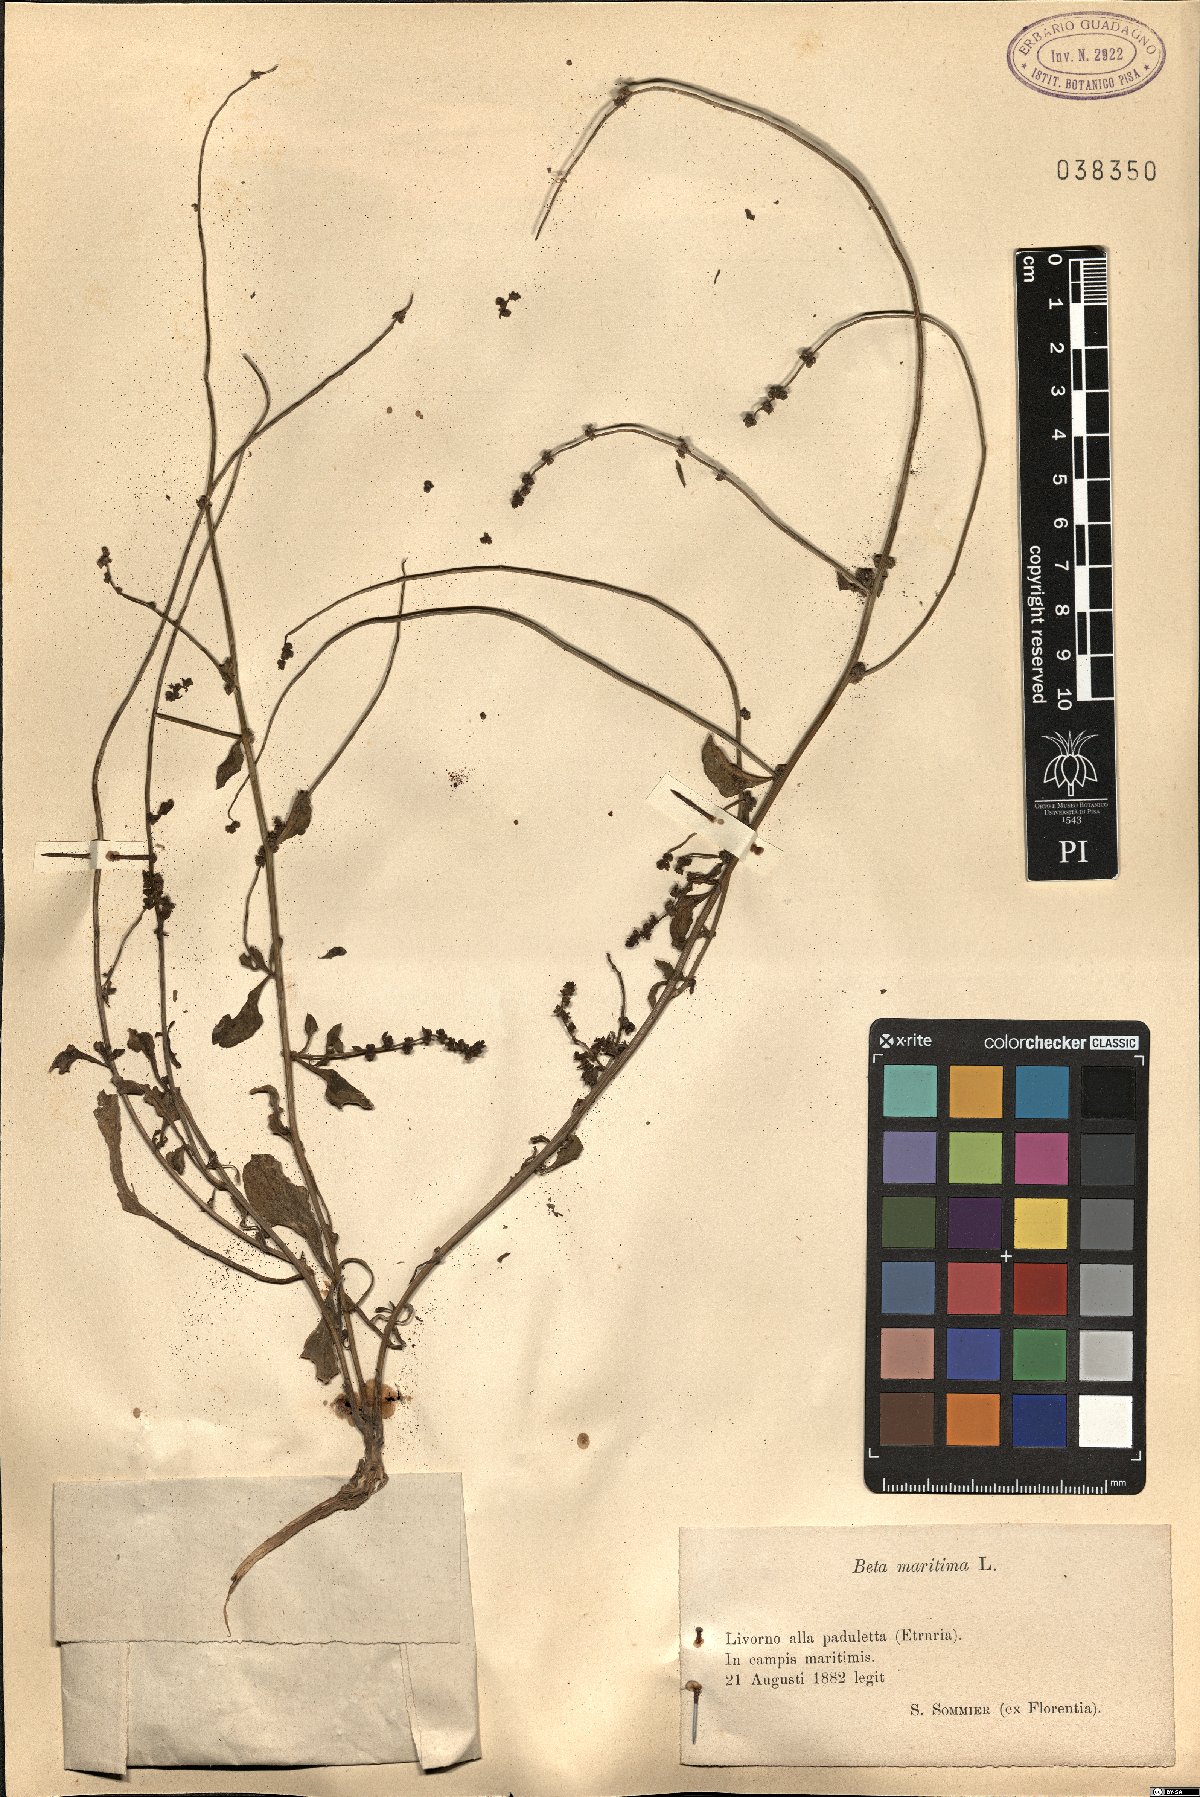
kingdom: Plantae
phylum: Tracheophyta
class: Magnoliopsida
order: Caryophyllales
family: Amaranthaceae
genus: Beta
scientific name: Beta maritima
